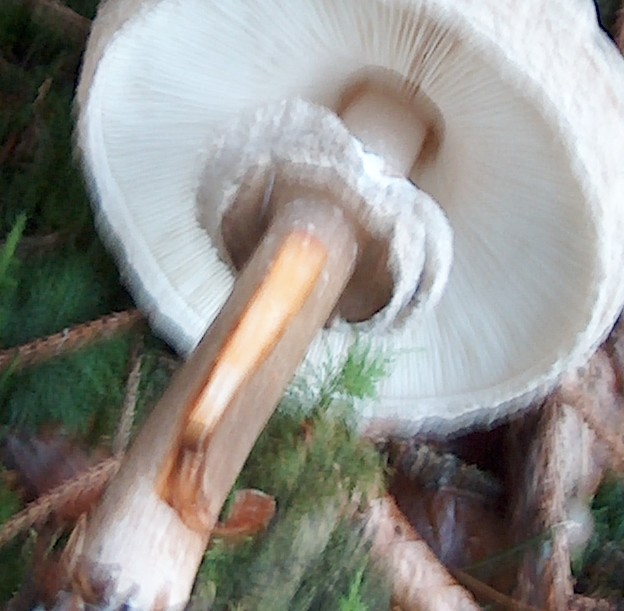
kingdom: Fungi
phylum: Basidiomycota
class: Agaricomycetes
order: Agaricales
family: Agaricaceae
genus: Chlorophyllum
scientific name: Chlorophyllum olivieri
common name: almindelig rabarberhat
